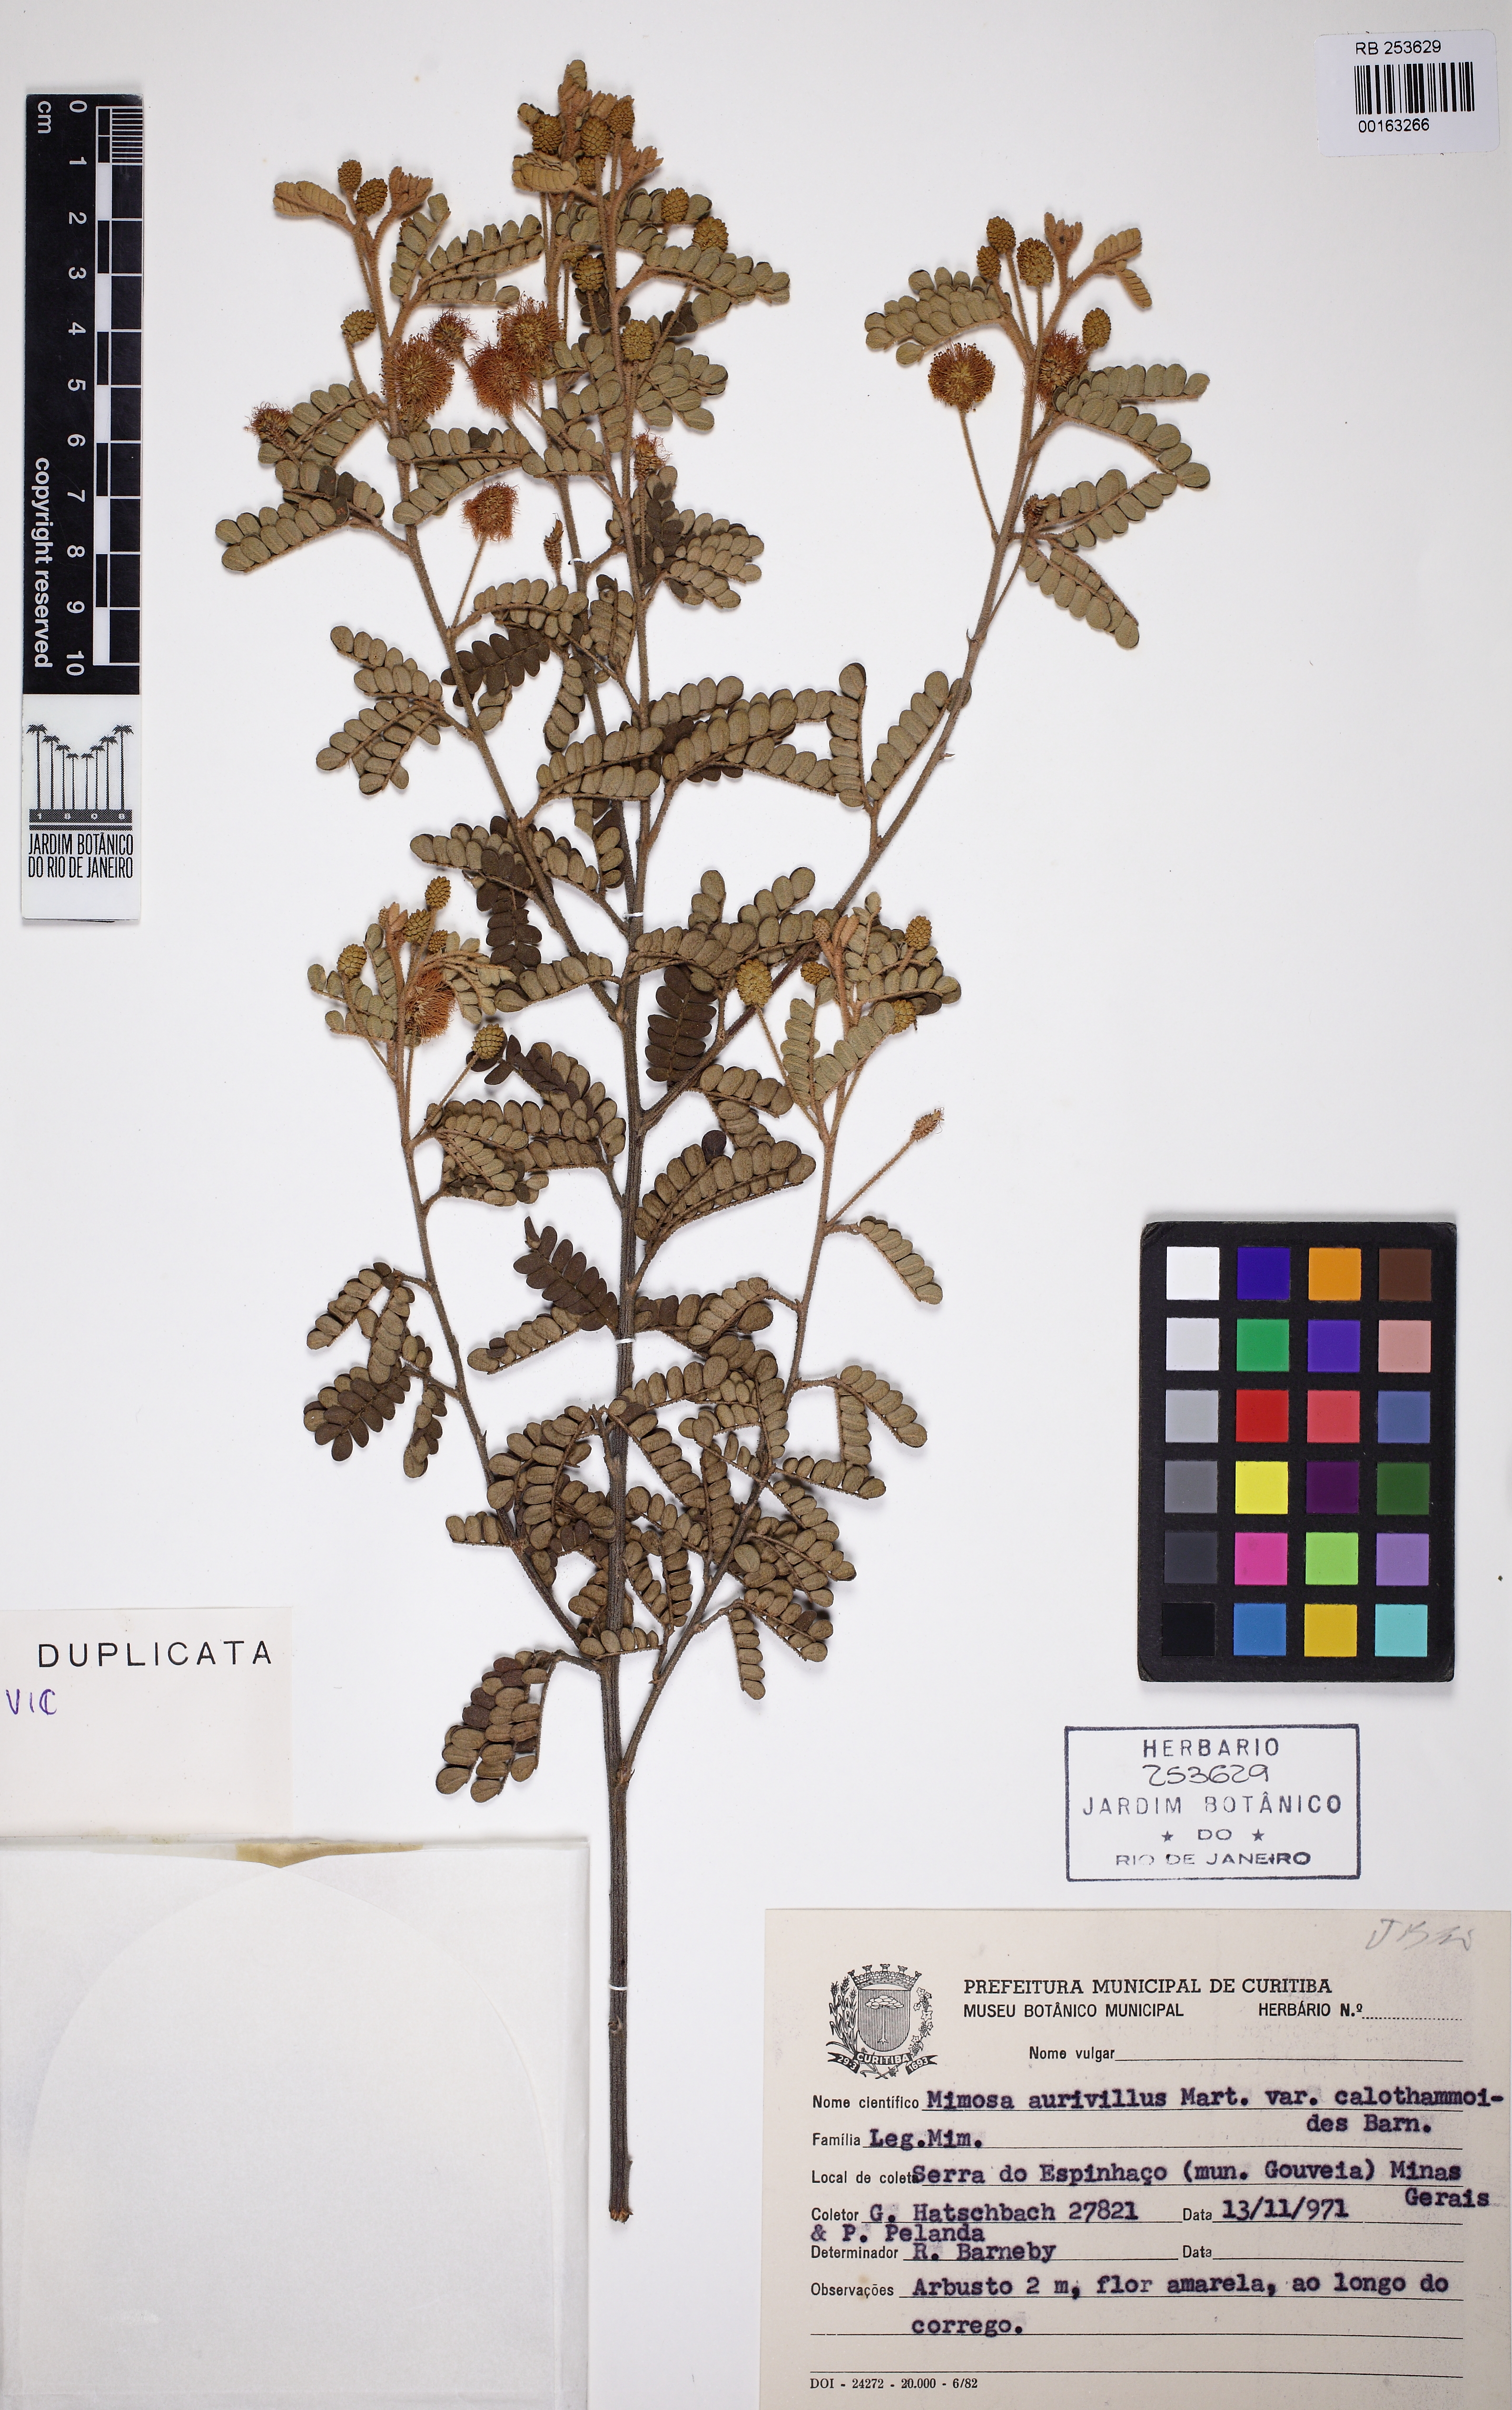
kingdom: Plantae
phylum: Tracheophyta
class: Magnoliopsida
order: Fabales
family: Fabaceae
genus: Mimosa
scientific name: Mimosa aurivillus
